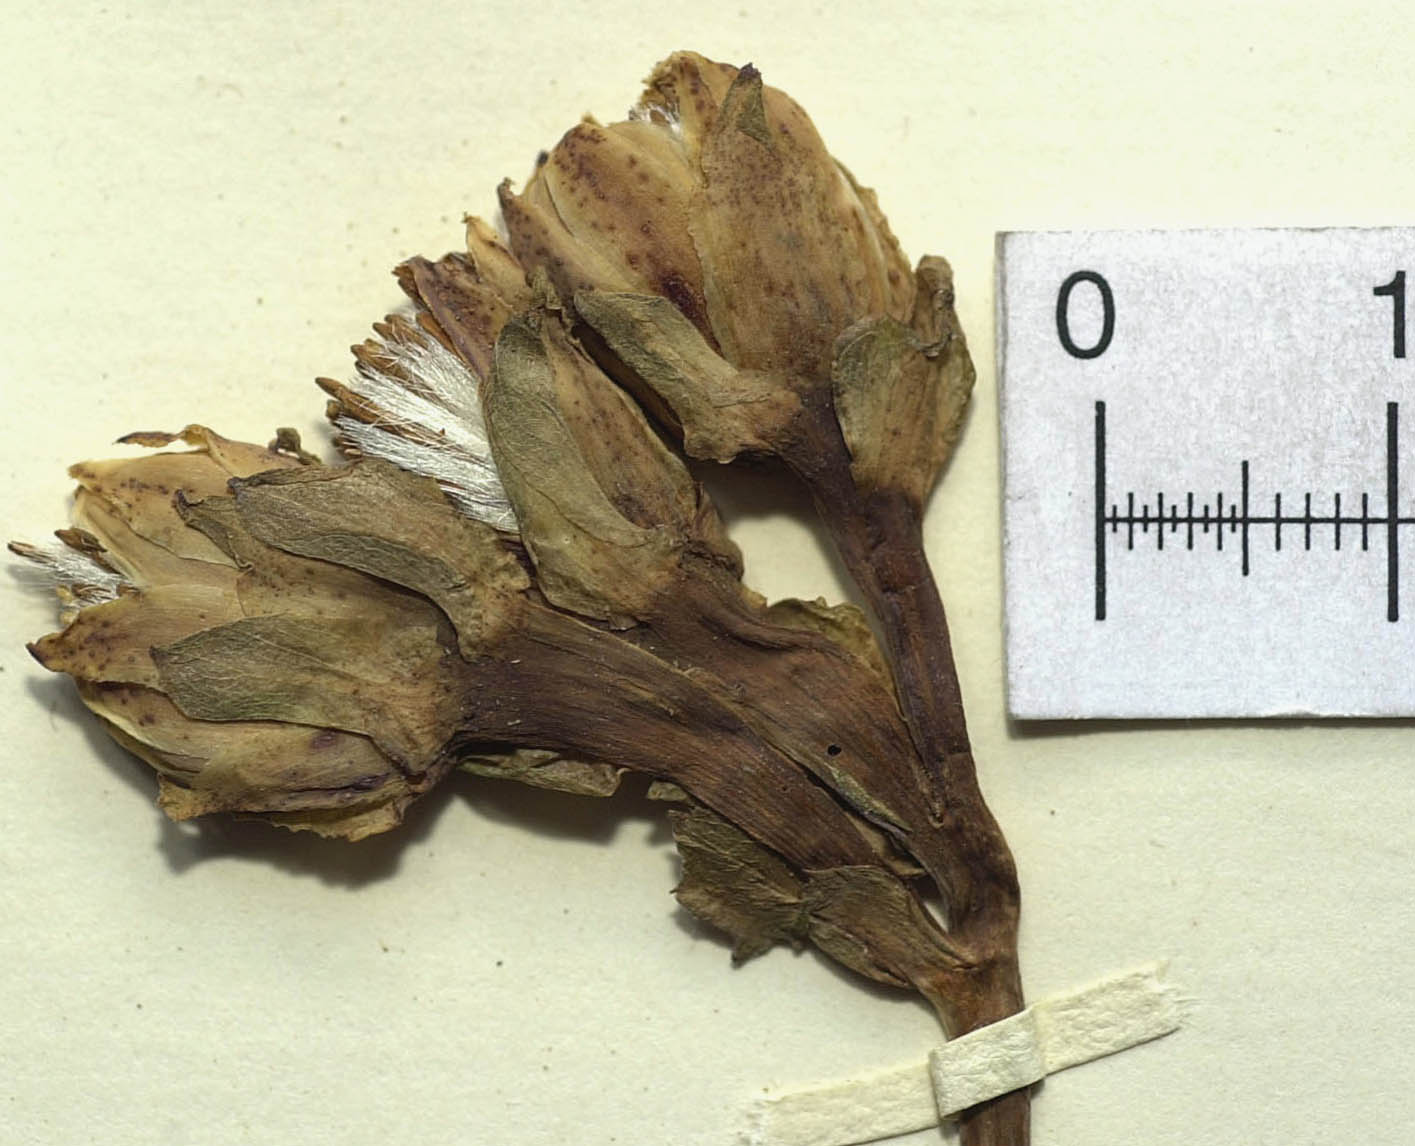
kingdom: Plantae
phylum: Tracheophyta
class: Magnoliopsida
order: Asterales
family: Asteraceae
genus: Roldana
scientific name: Roldana suffulta
